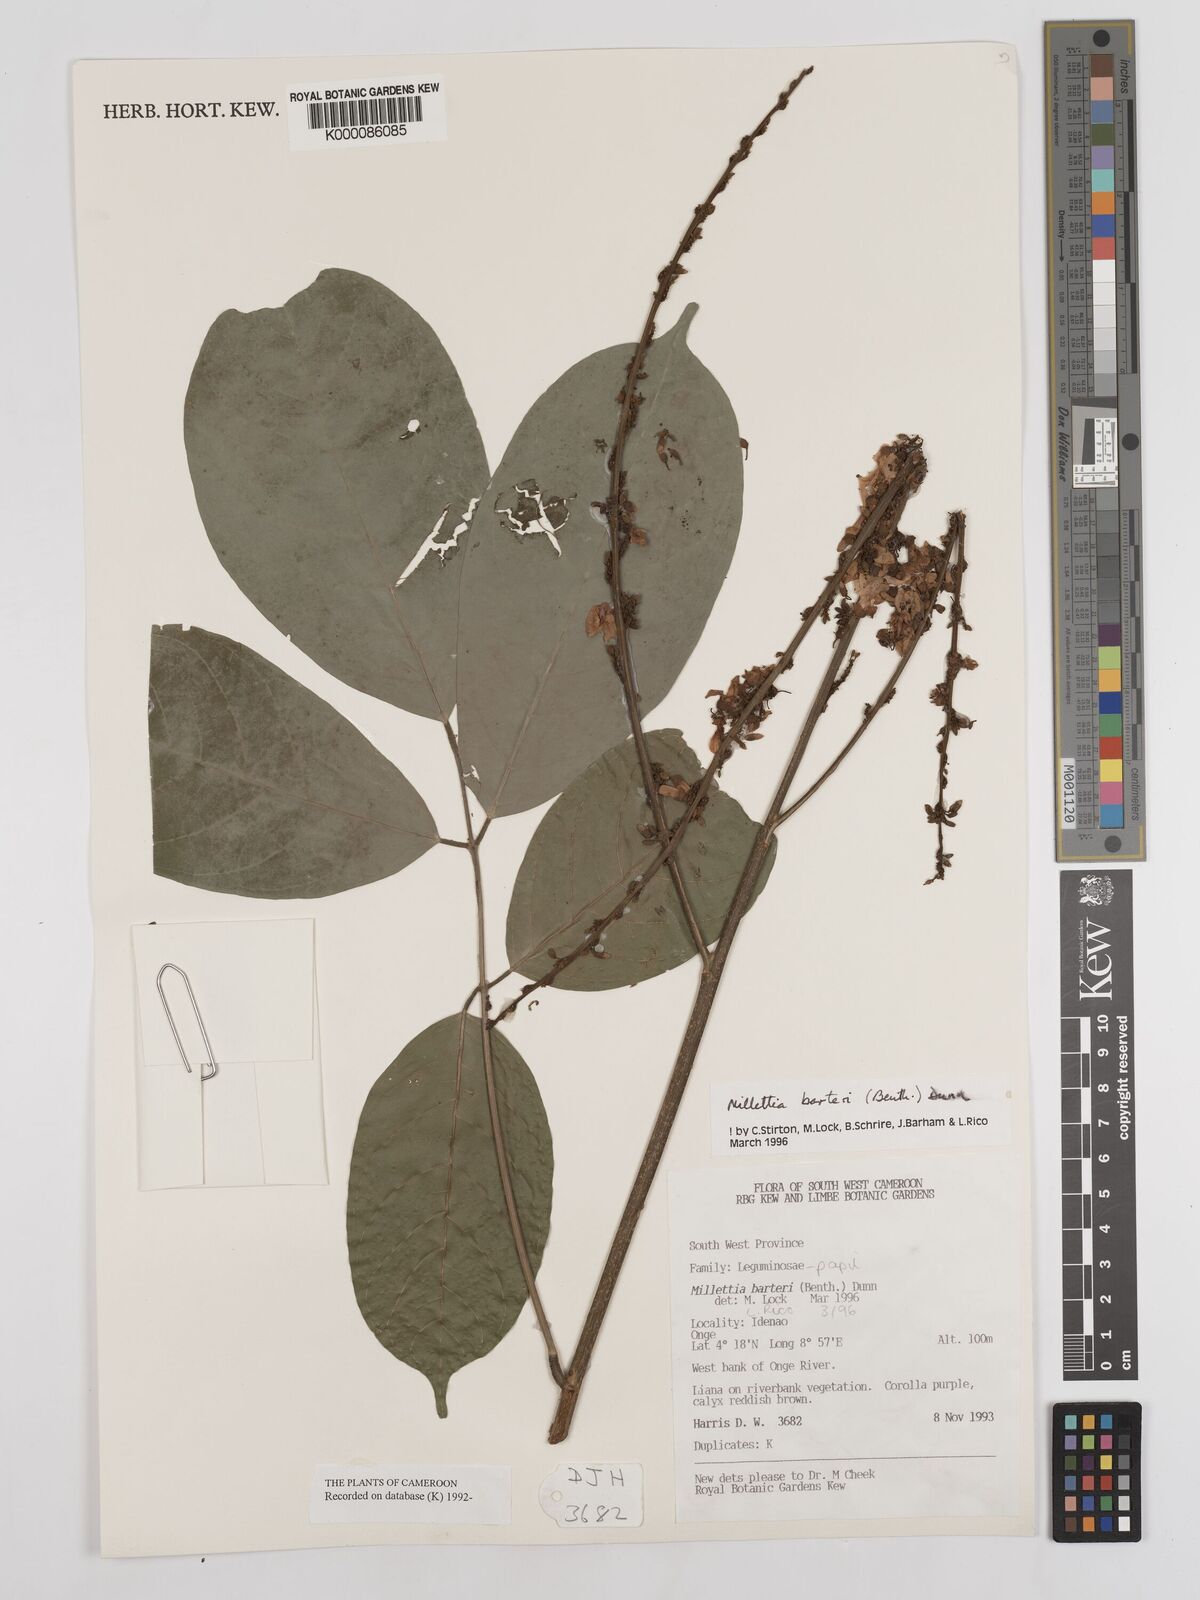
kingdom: Plantae
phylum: Tracheophyta
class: Magnoliopsida
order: Fabales
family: Fabaceae
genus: Millettia
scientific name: Millettia barteri
